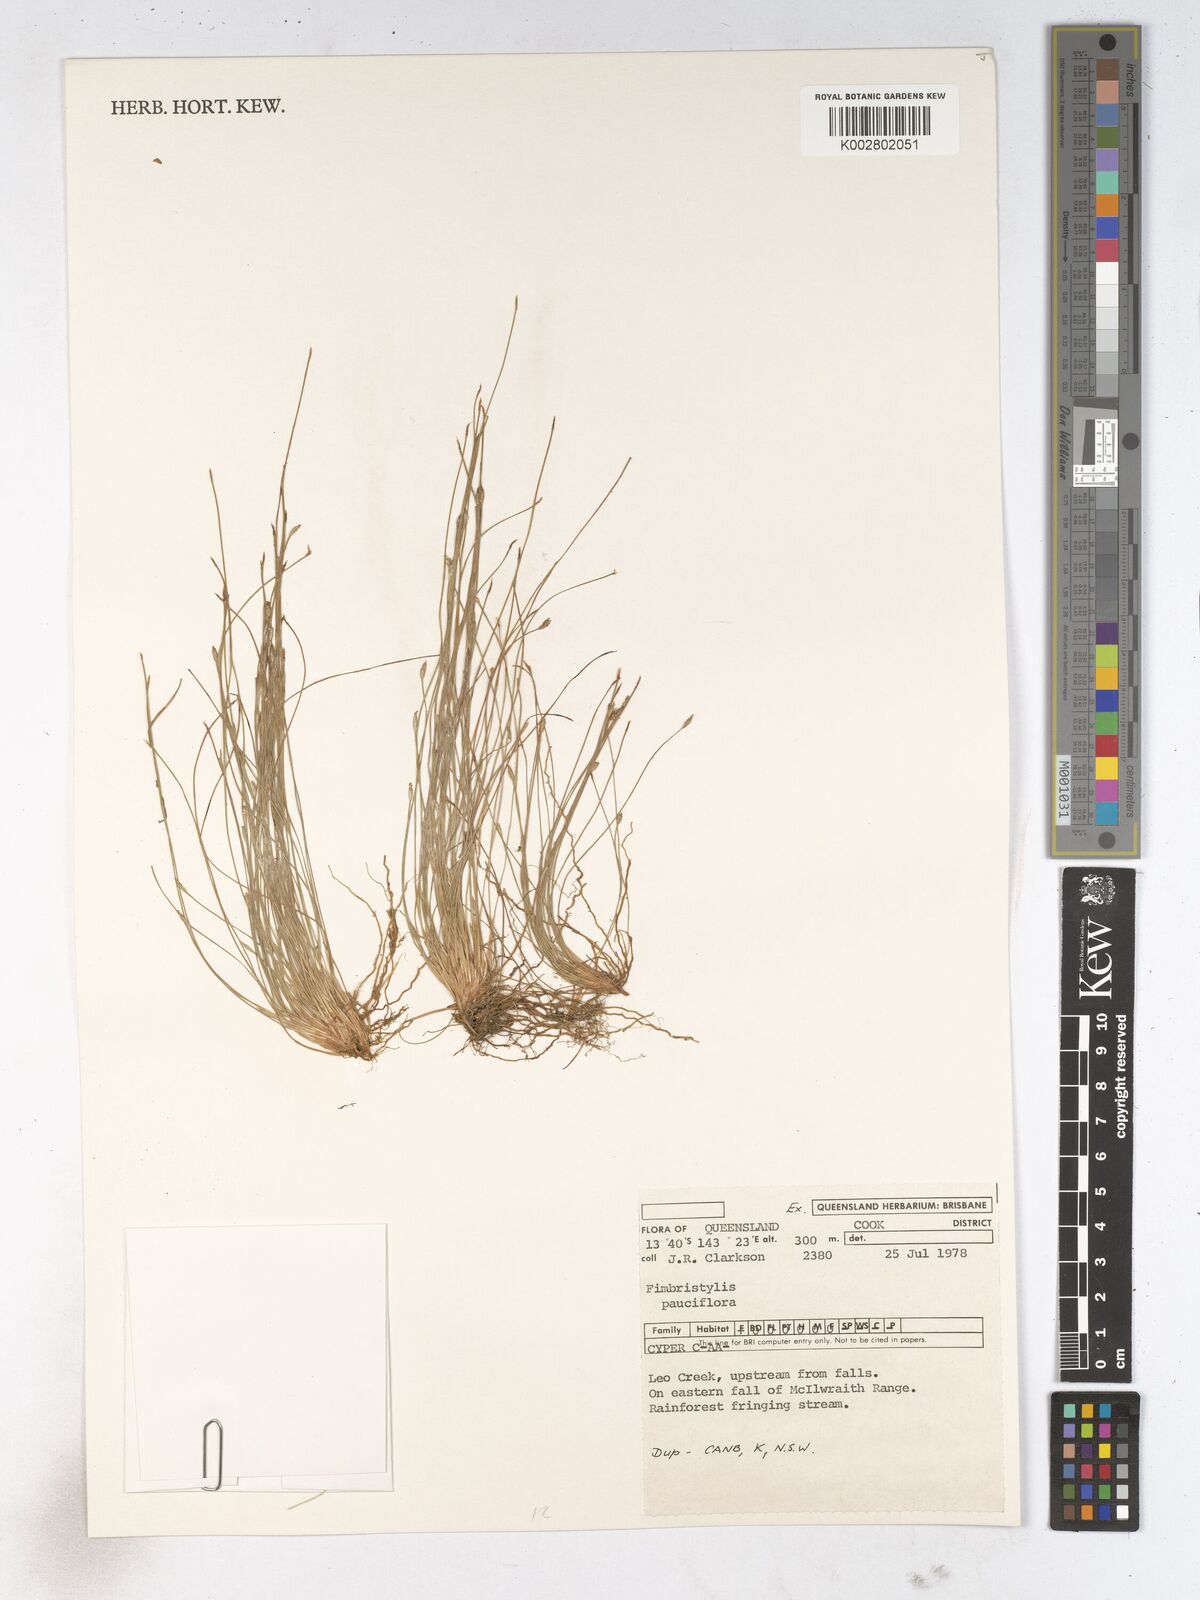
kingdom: Plantae
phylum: Tracheophyta
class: Liliopsida
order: Poales
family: Cyperaceae
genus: Fimbristylis
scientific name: Fimbristylis pauciflora
